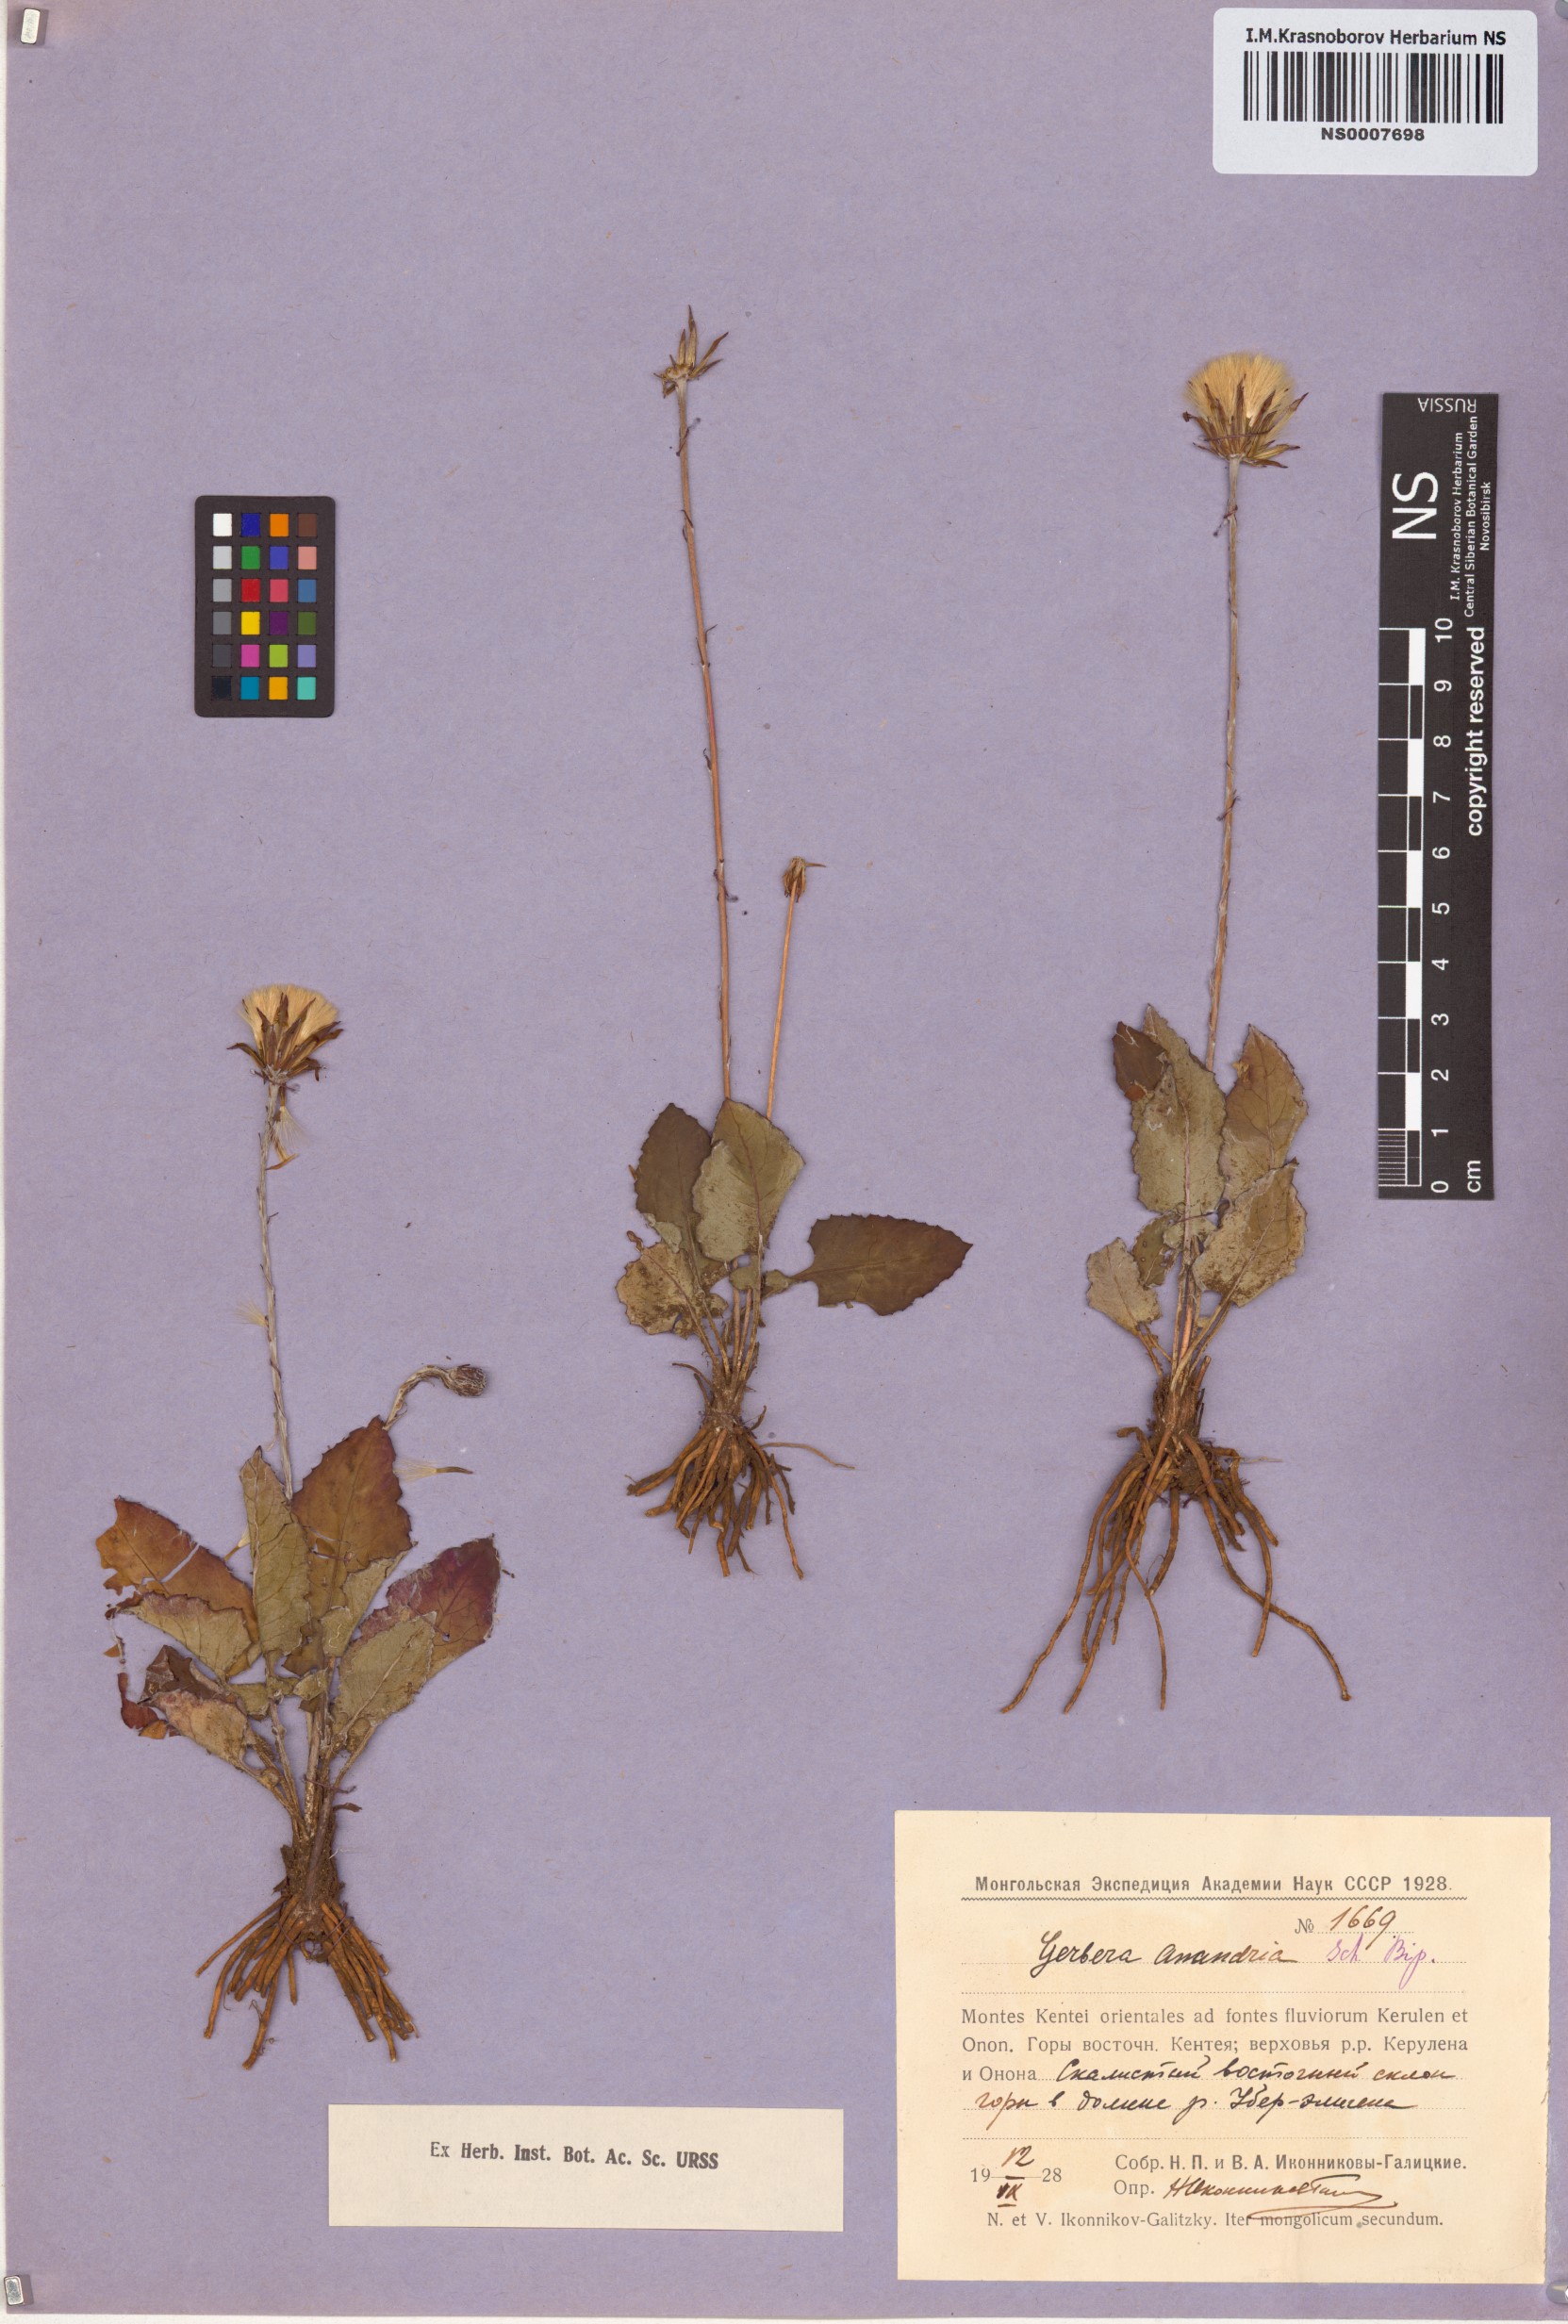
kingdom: Plantae
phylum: Tracheophyta
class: Magnoliopsida
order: Asterales
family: Asteraceae
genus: Leibnitzia
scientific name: Leibnitzia anandria
